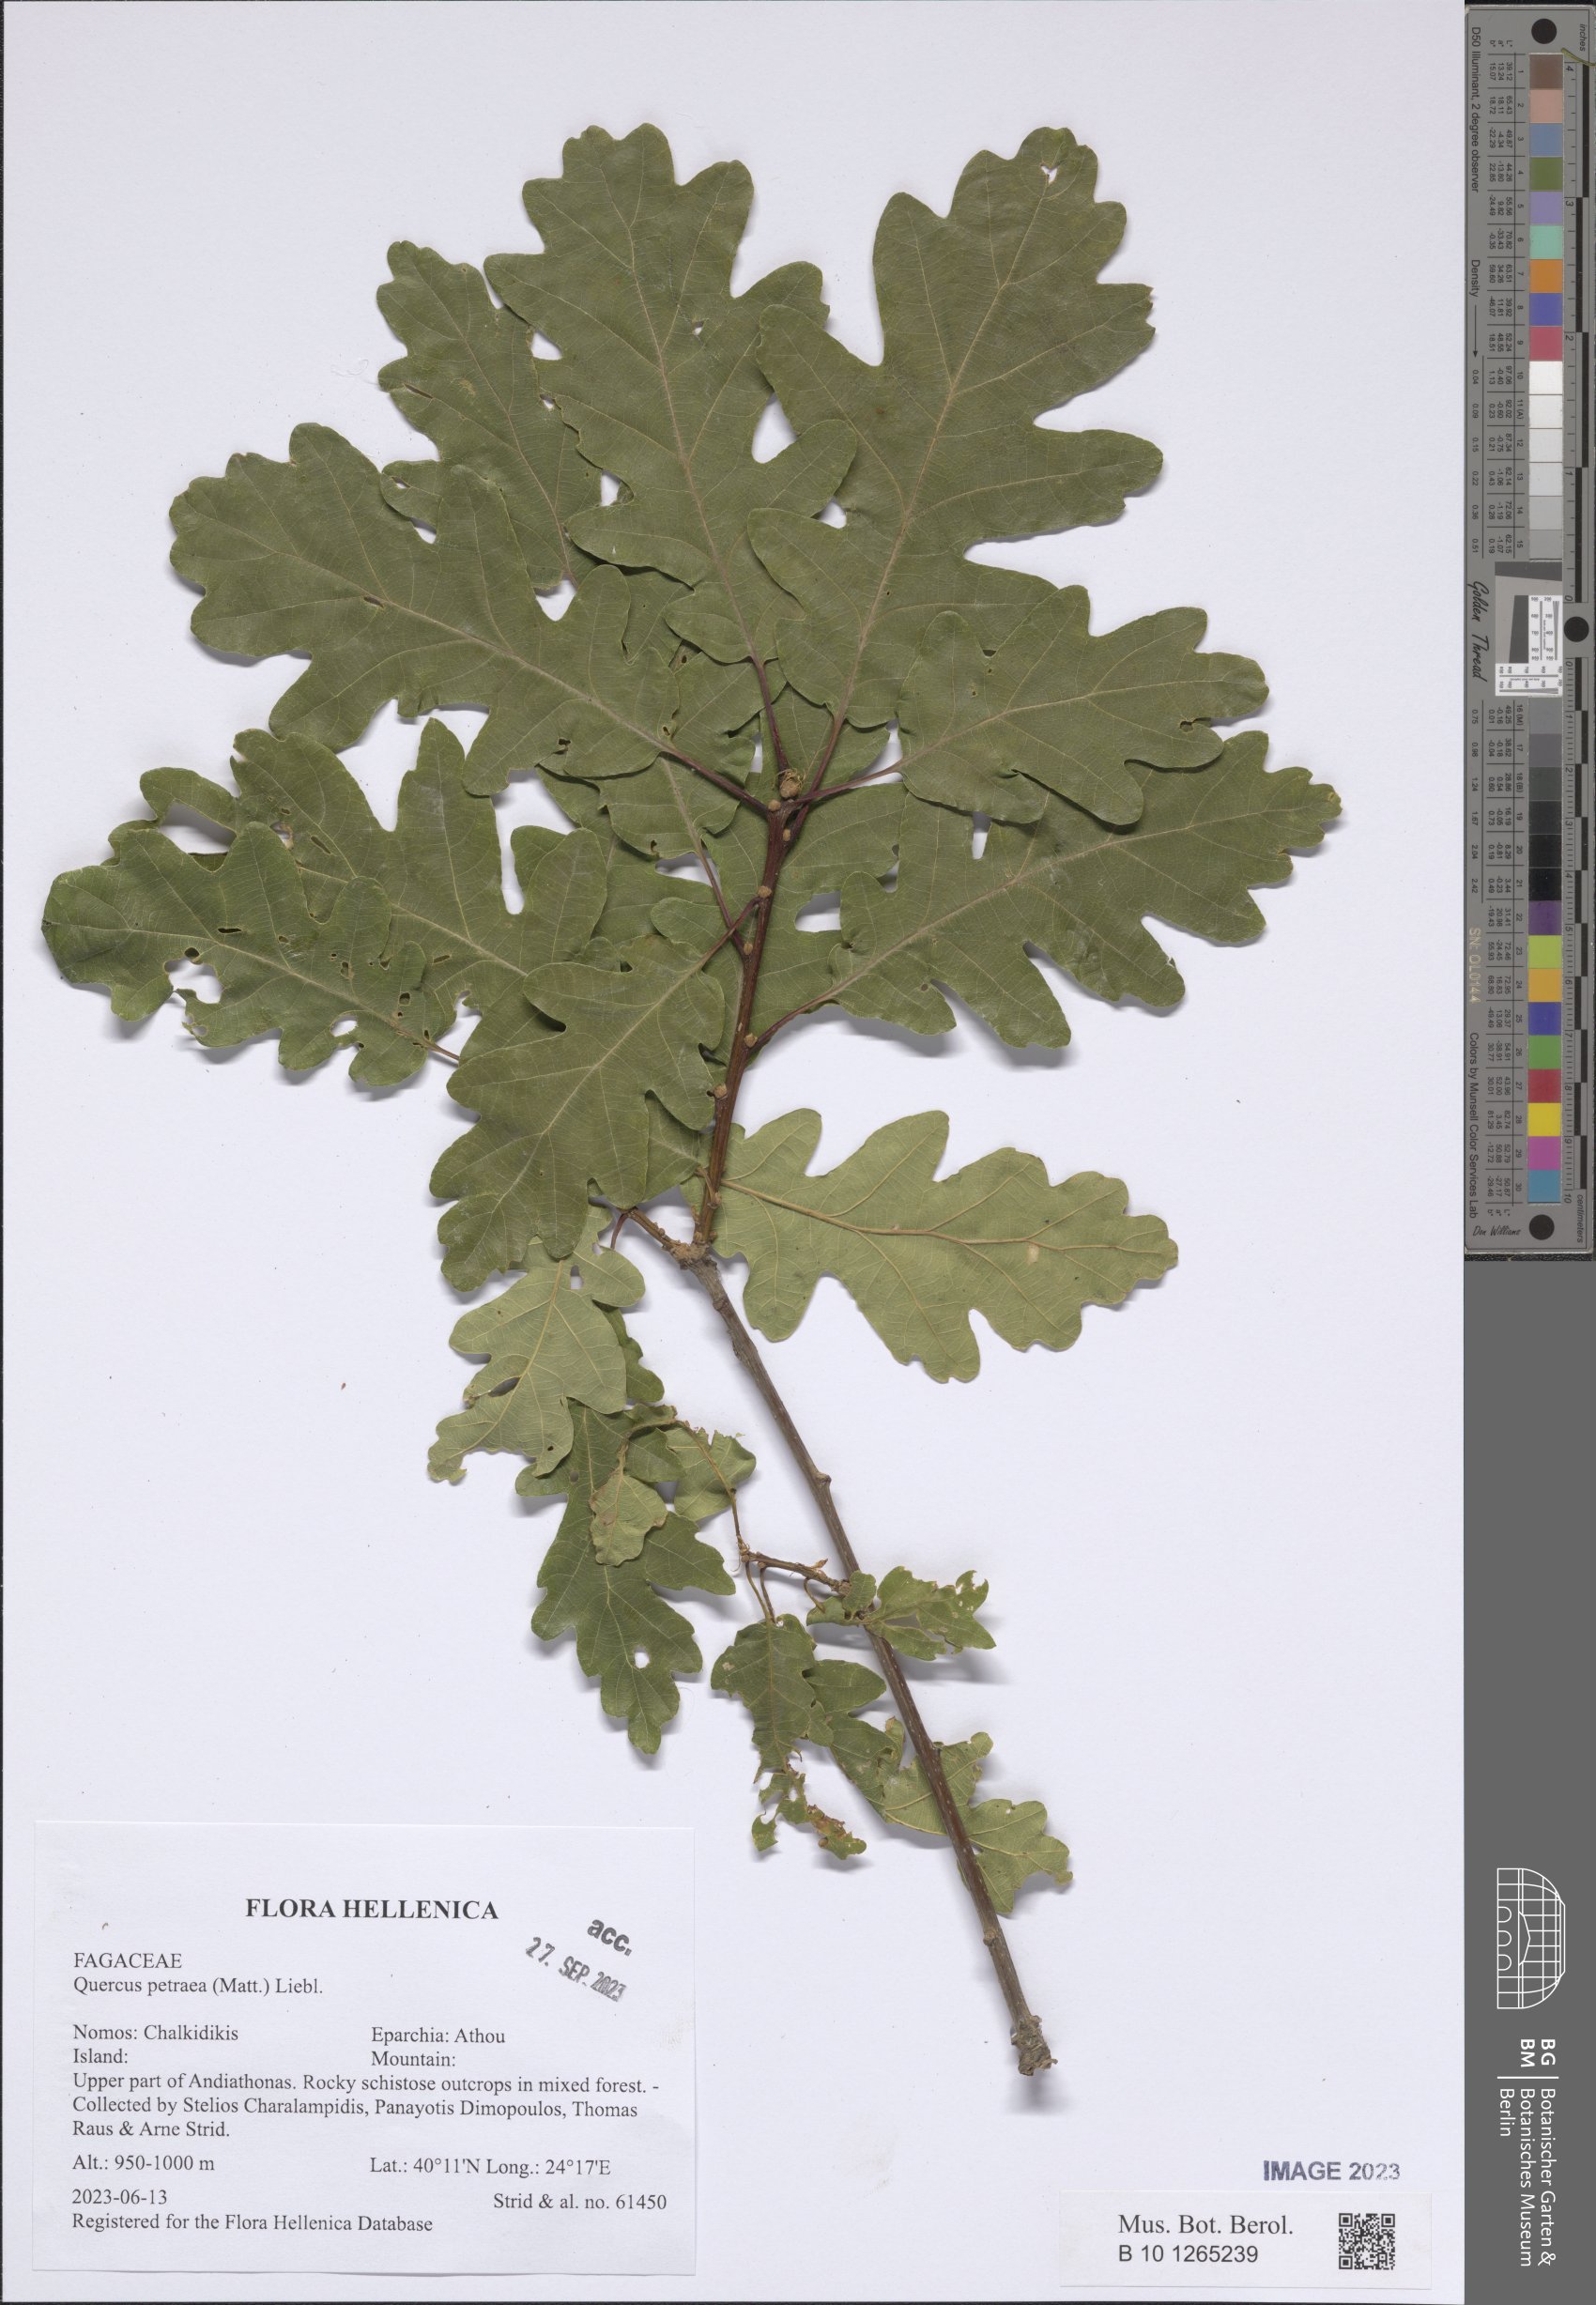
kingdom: Plantae
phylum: Tracheophyta
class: Magnoliopsida
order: Fagales
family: Fagaceae
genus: Quercus
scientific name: Quercus petraea
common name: Sessile oak
